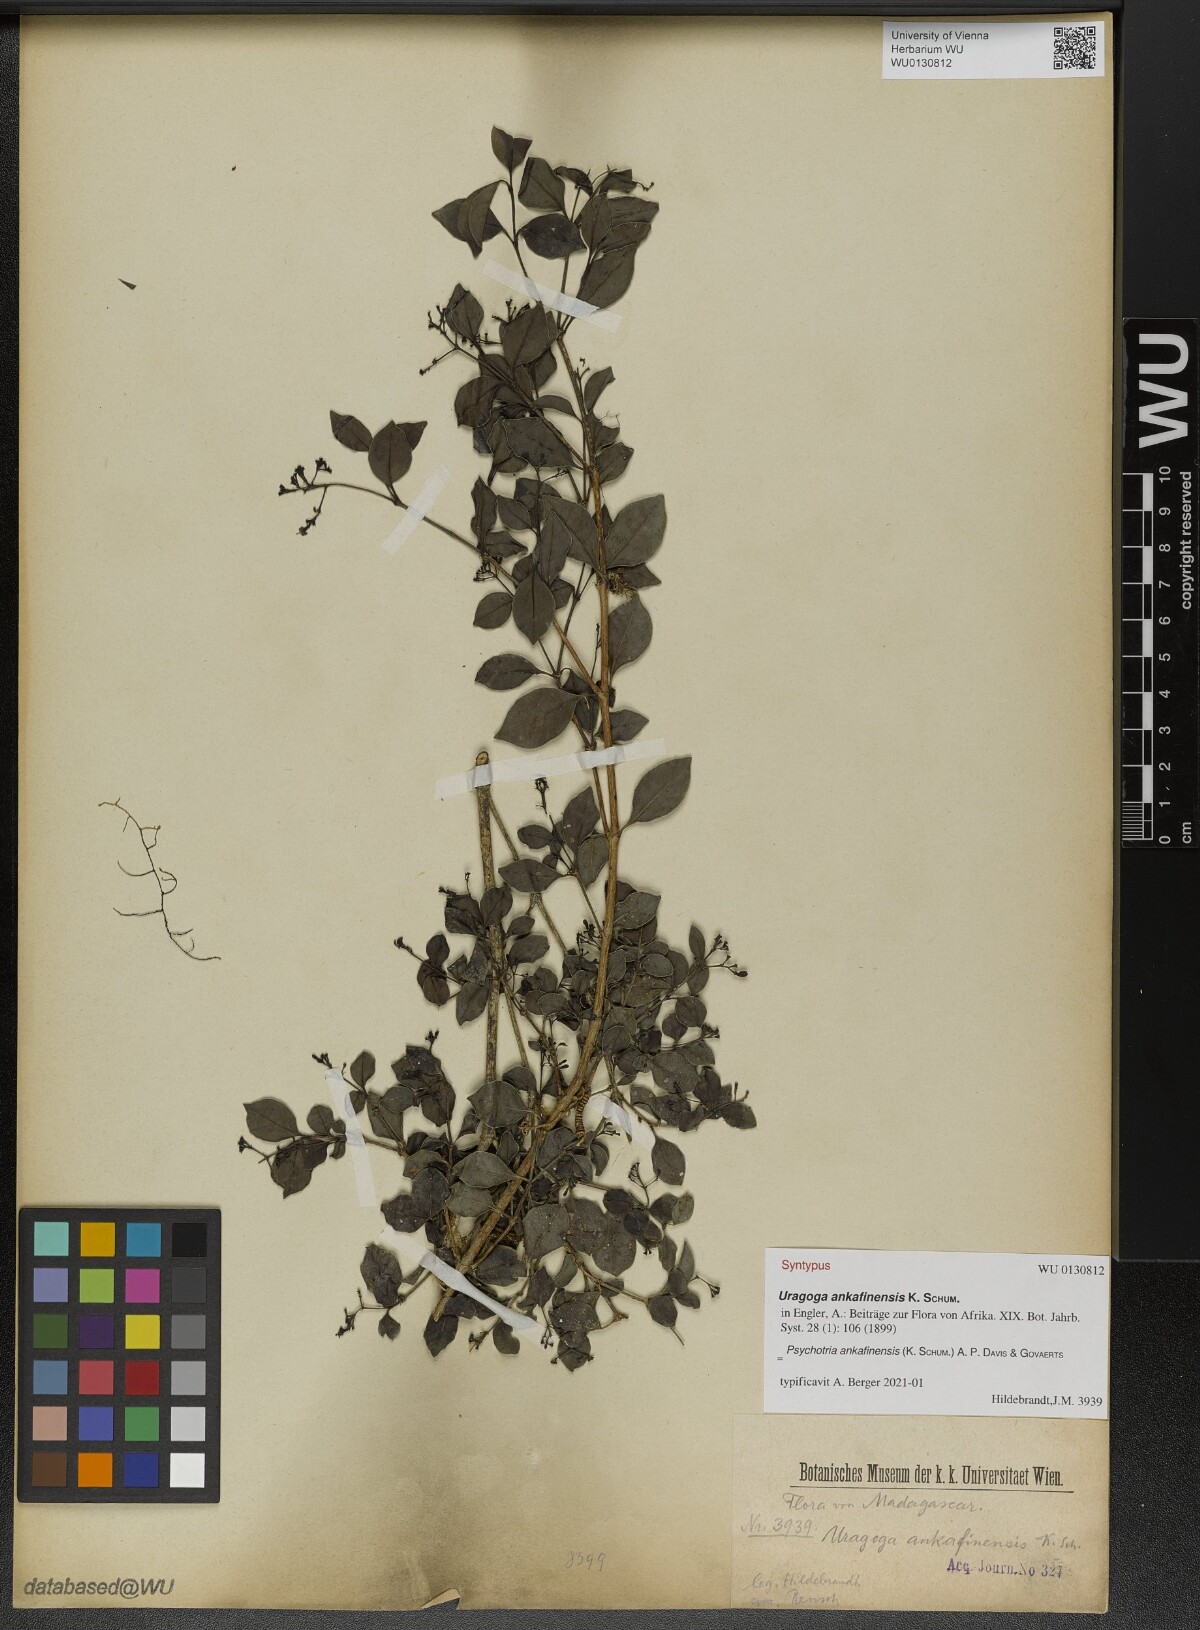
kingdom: Plantae
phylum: Tracheophyta
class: Magnoliopsida
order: Gentianales
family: Rubiaceae
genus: Psychotria
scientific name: Psychotria ankafinensis
